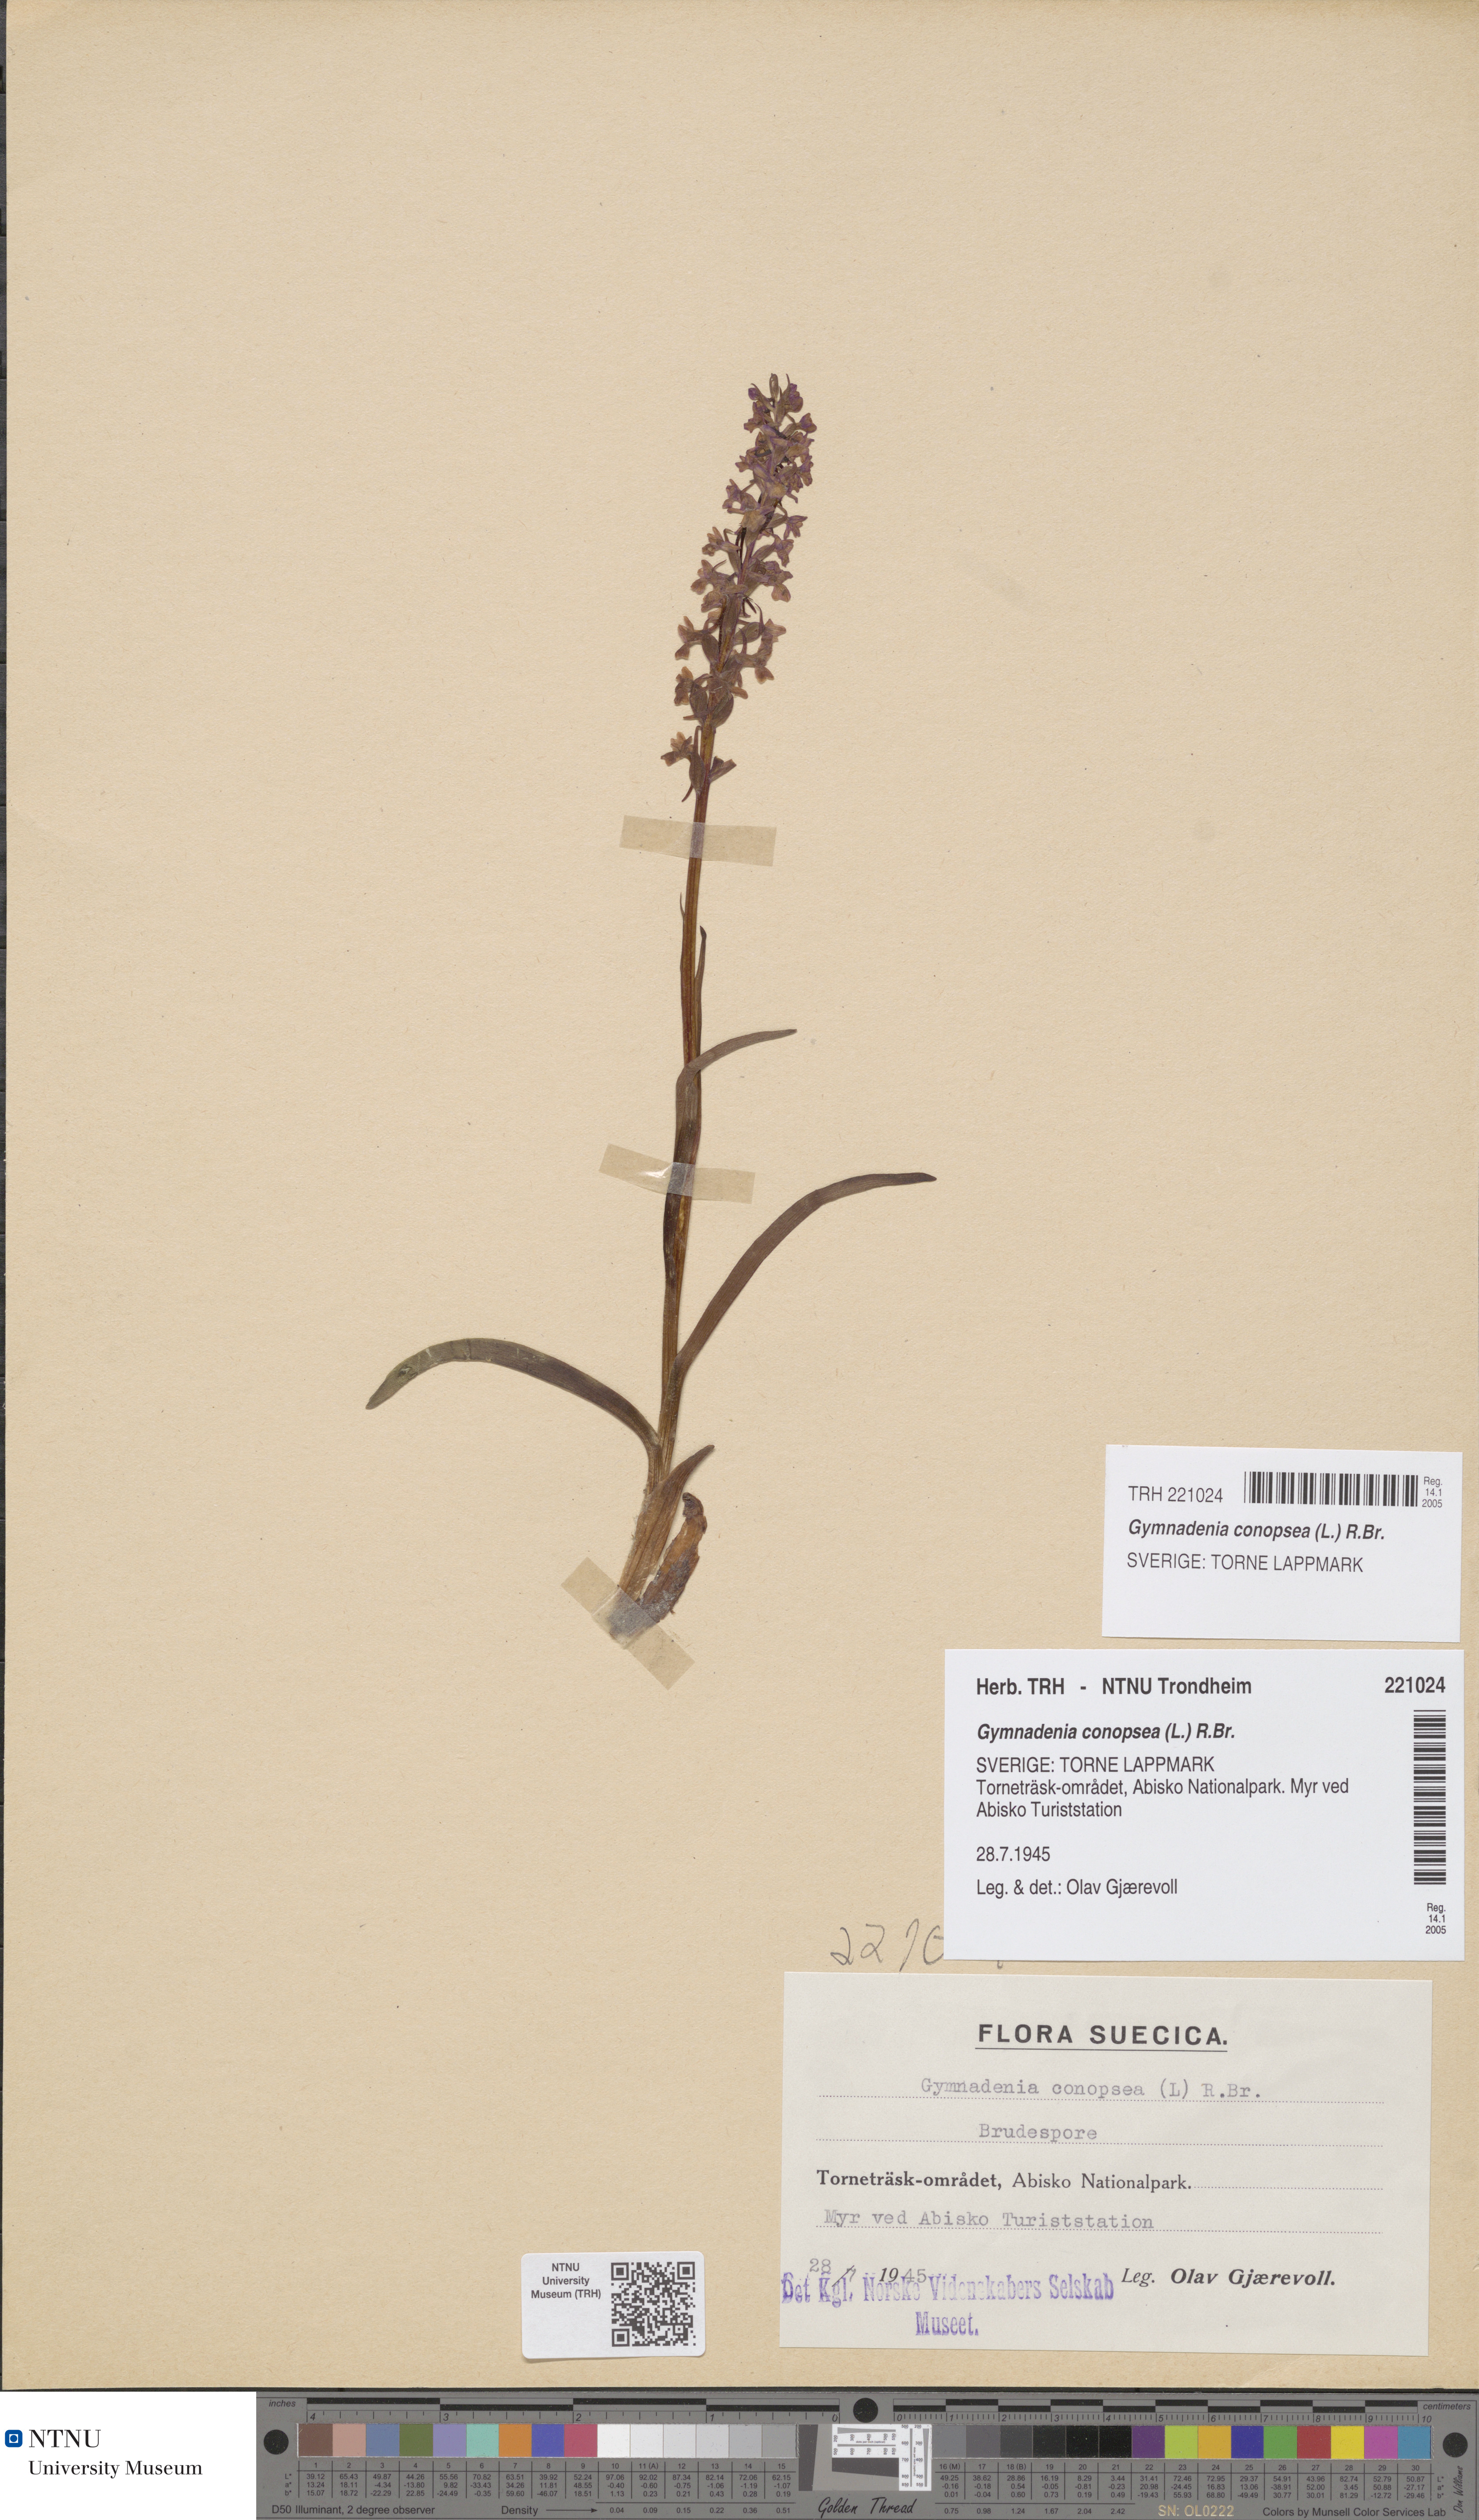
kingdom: Plantae
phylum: Tracheophyta
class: Liliopsida
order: Asparagales
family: Orchidaceae
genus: Gymnadenia
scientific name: Gymnadenia conopsea
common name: Fragrant orchid
